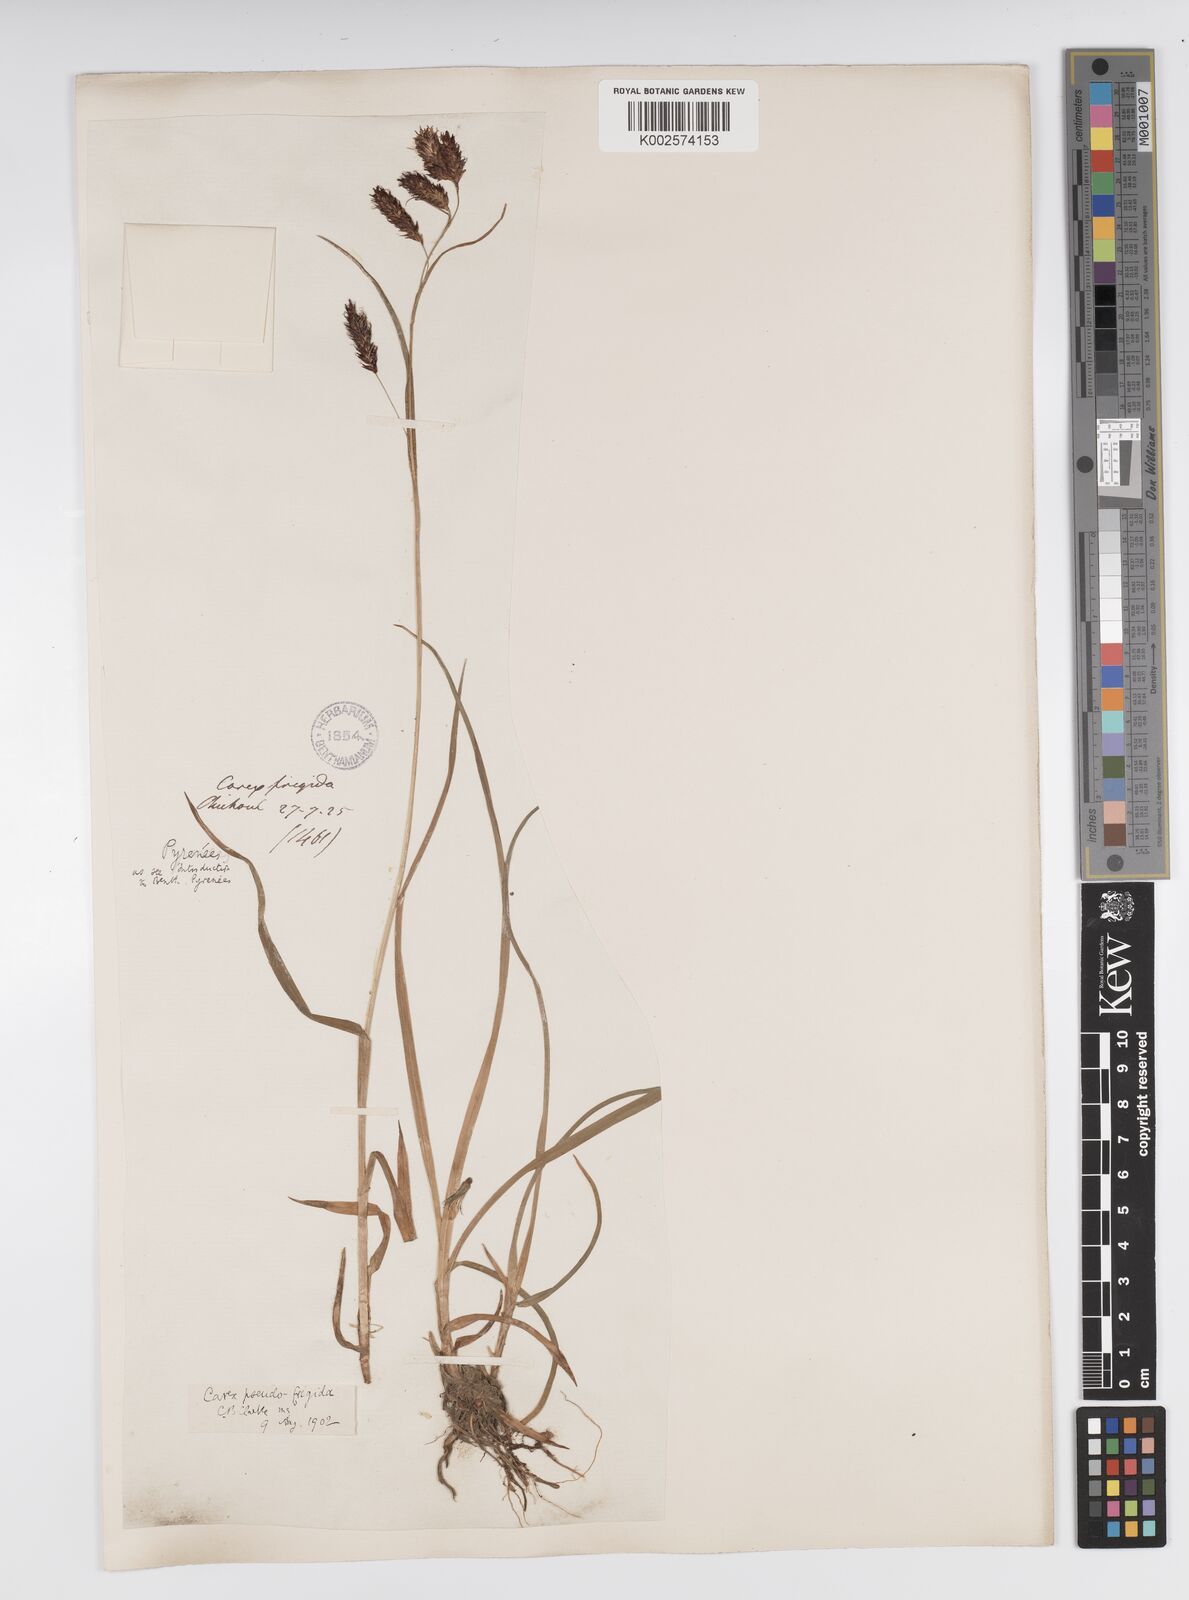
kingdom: Plantae
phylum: Tracheophyta
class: Liliopsida
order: Poales
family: Cyperaceae
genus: Carex
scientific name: Carex frigida
